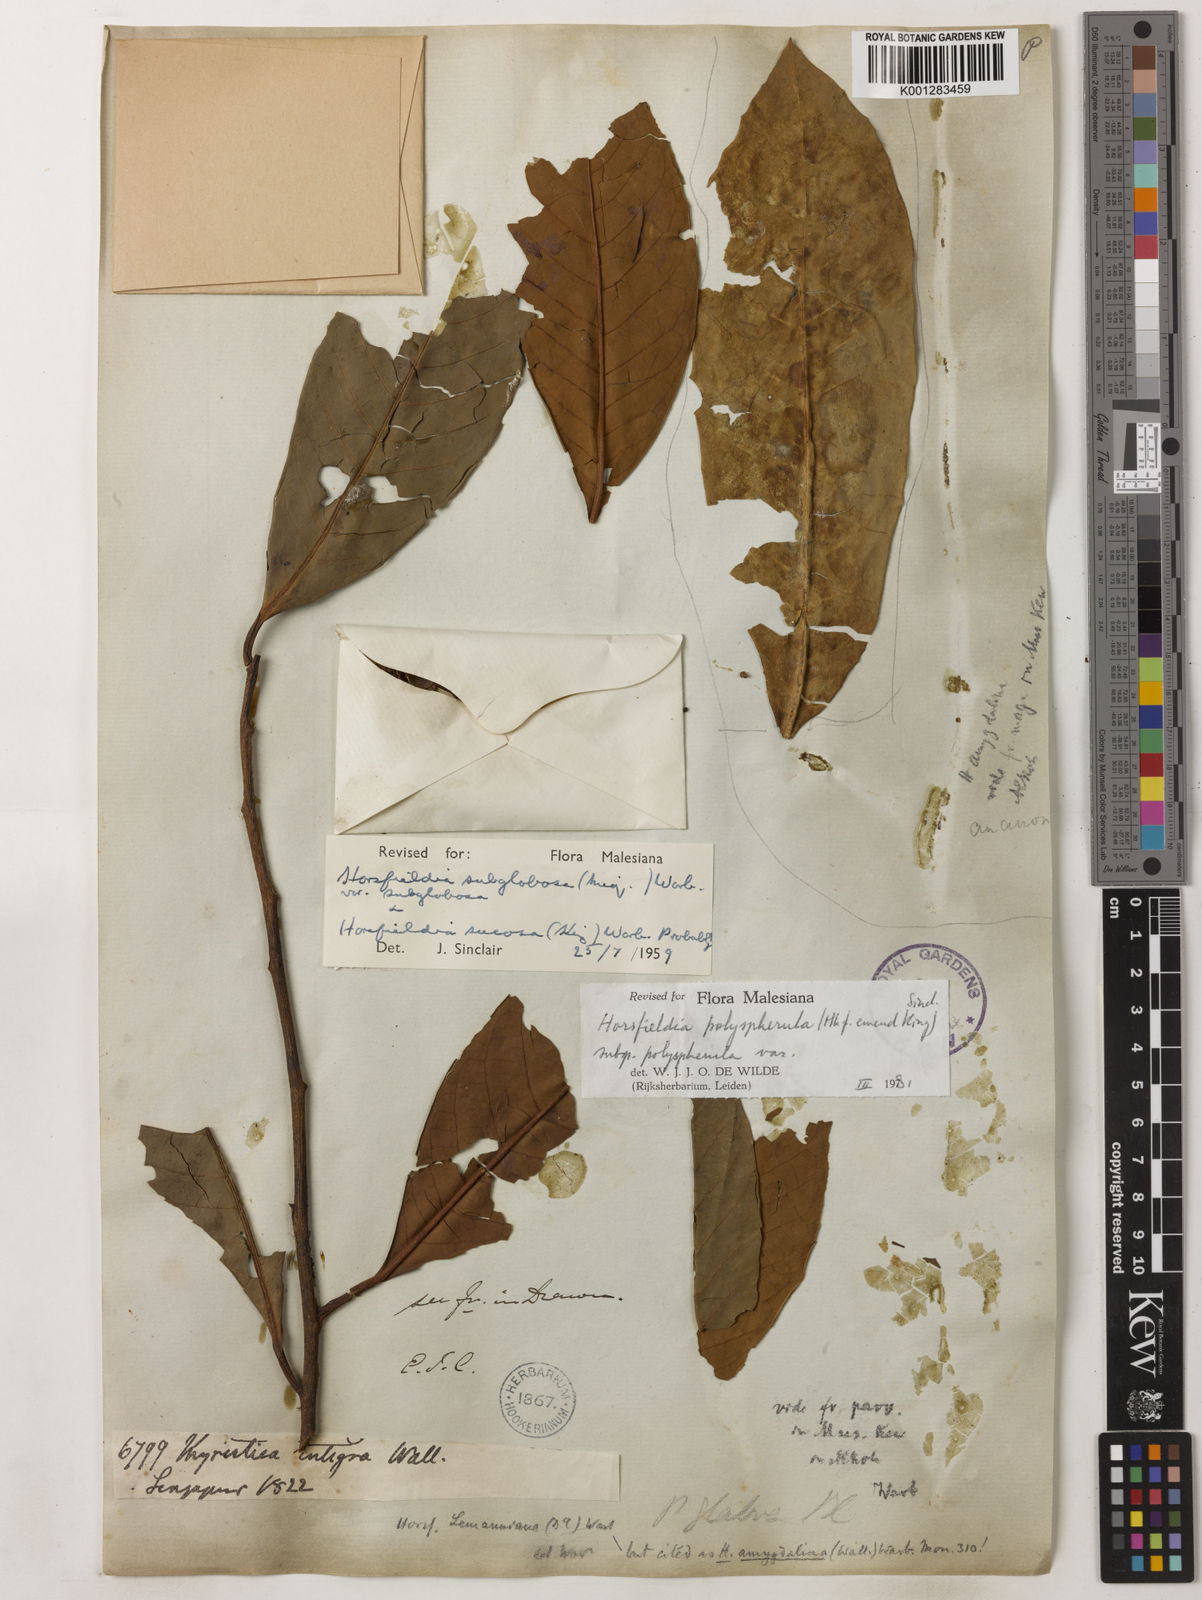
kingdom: Plantae
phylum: Tracheophyta
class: Magnoliopsida
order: Magnoliales
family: Myristicaceae
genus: Horsfieldia
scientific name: Horsfieldia polyspherula
